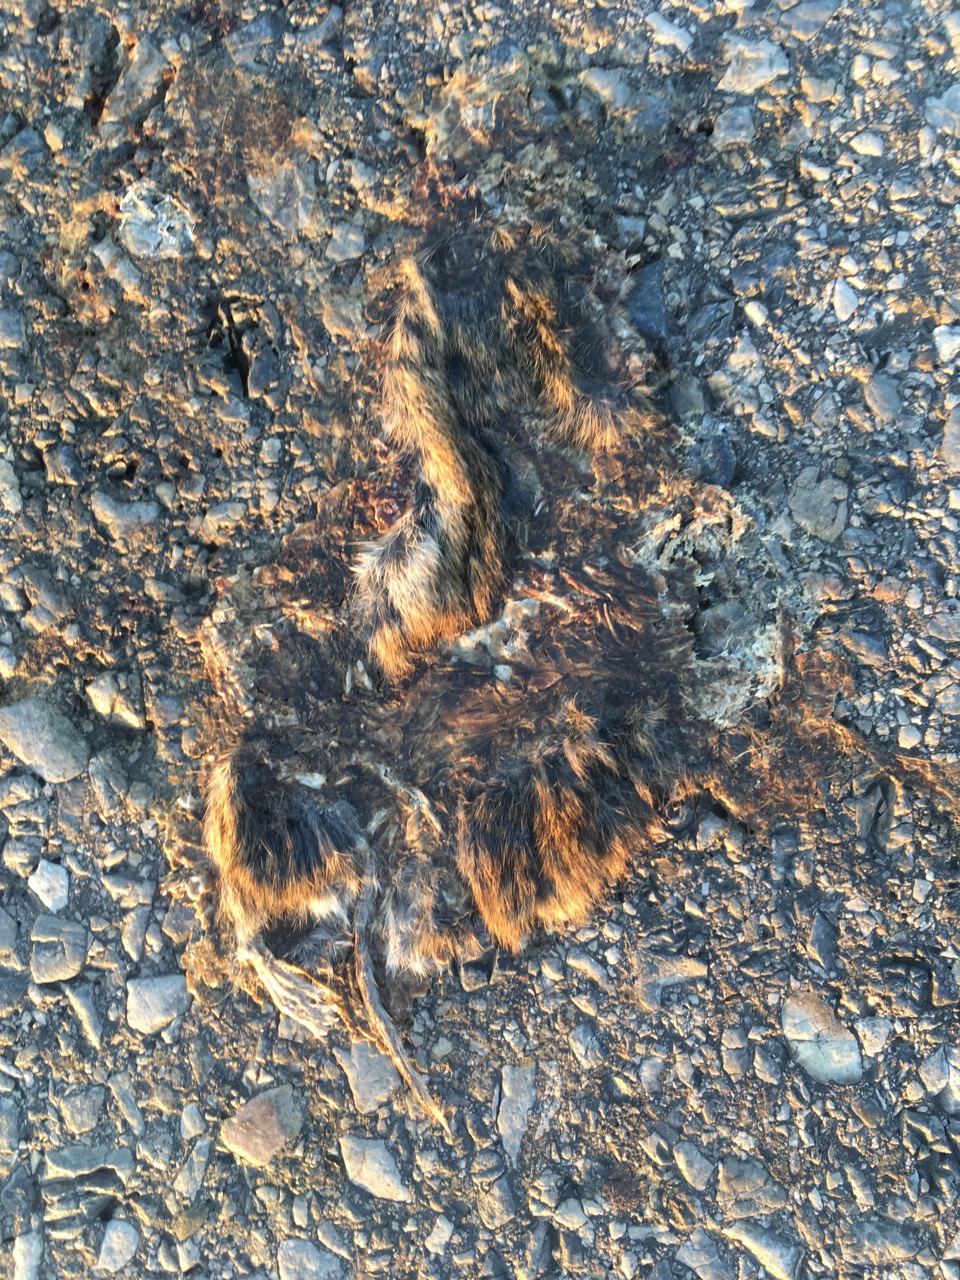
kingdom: Animalia
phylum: Chordata
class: Mammalia
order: Rodentia
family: Muridae
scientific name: Muridae
